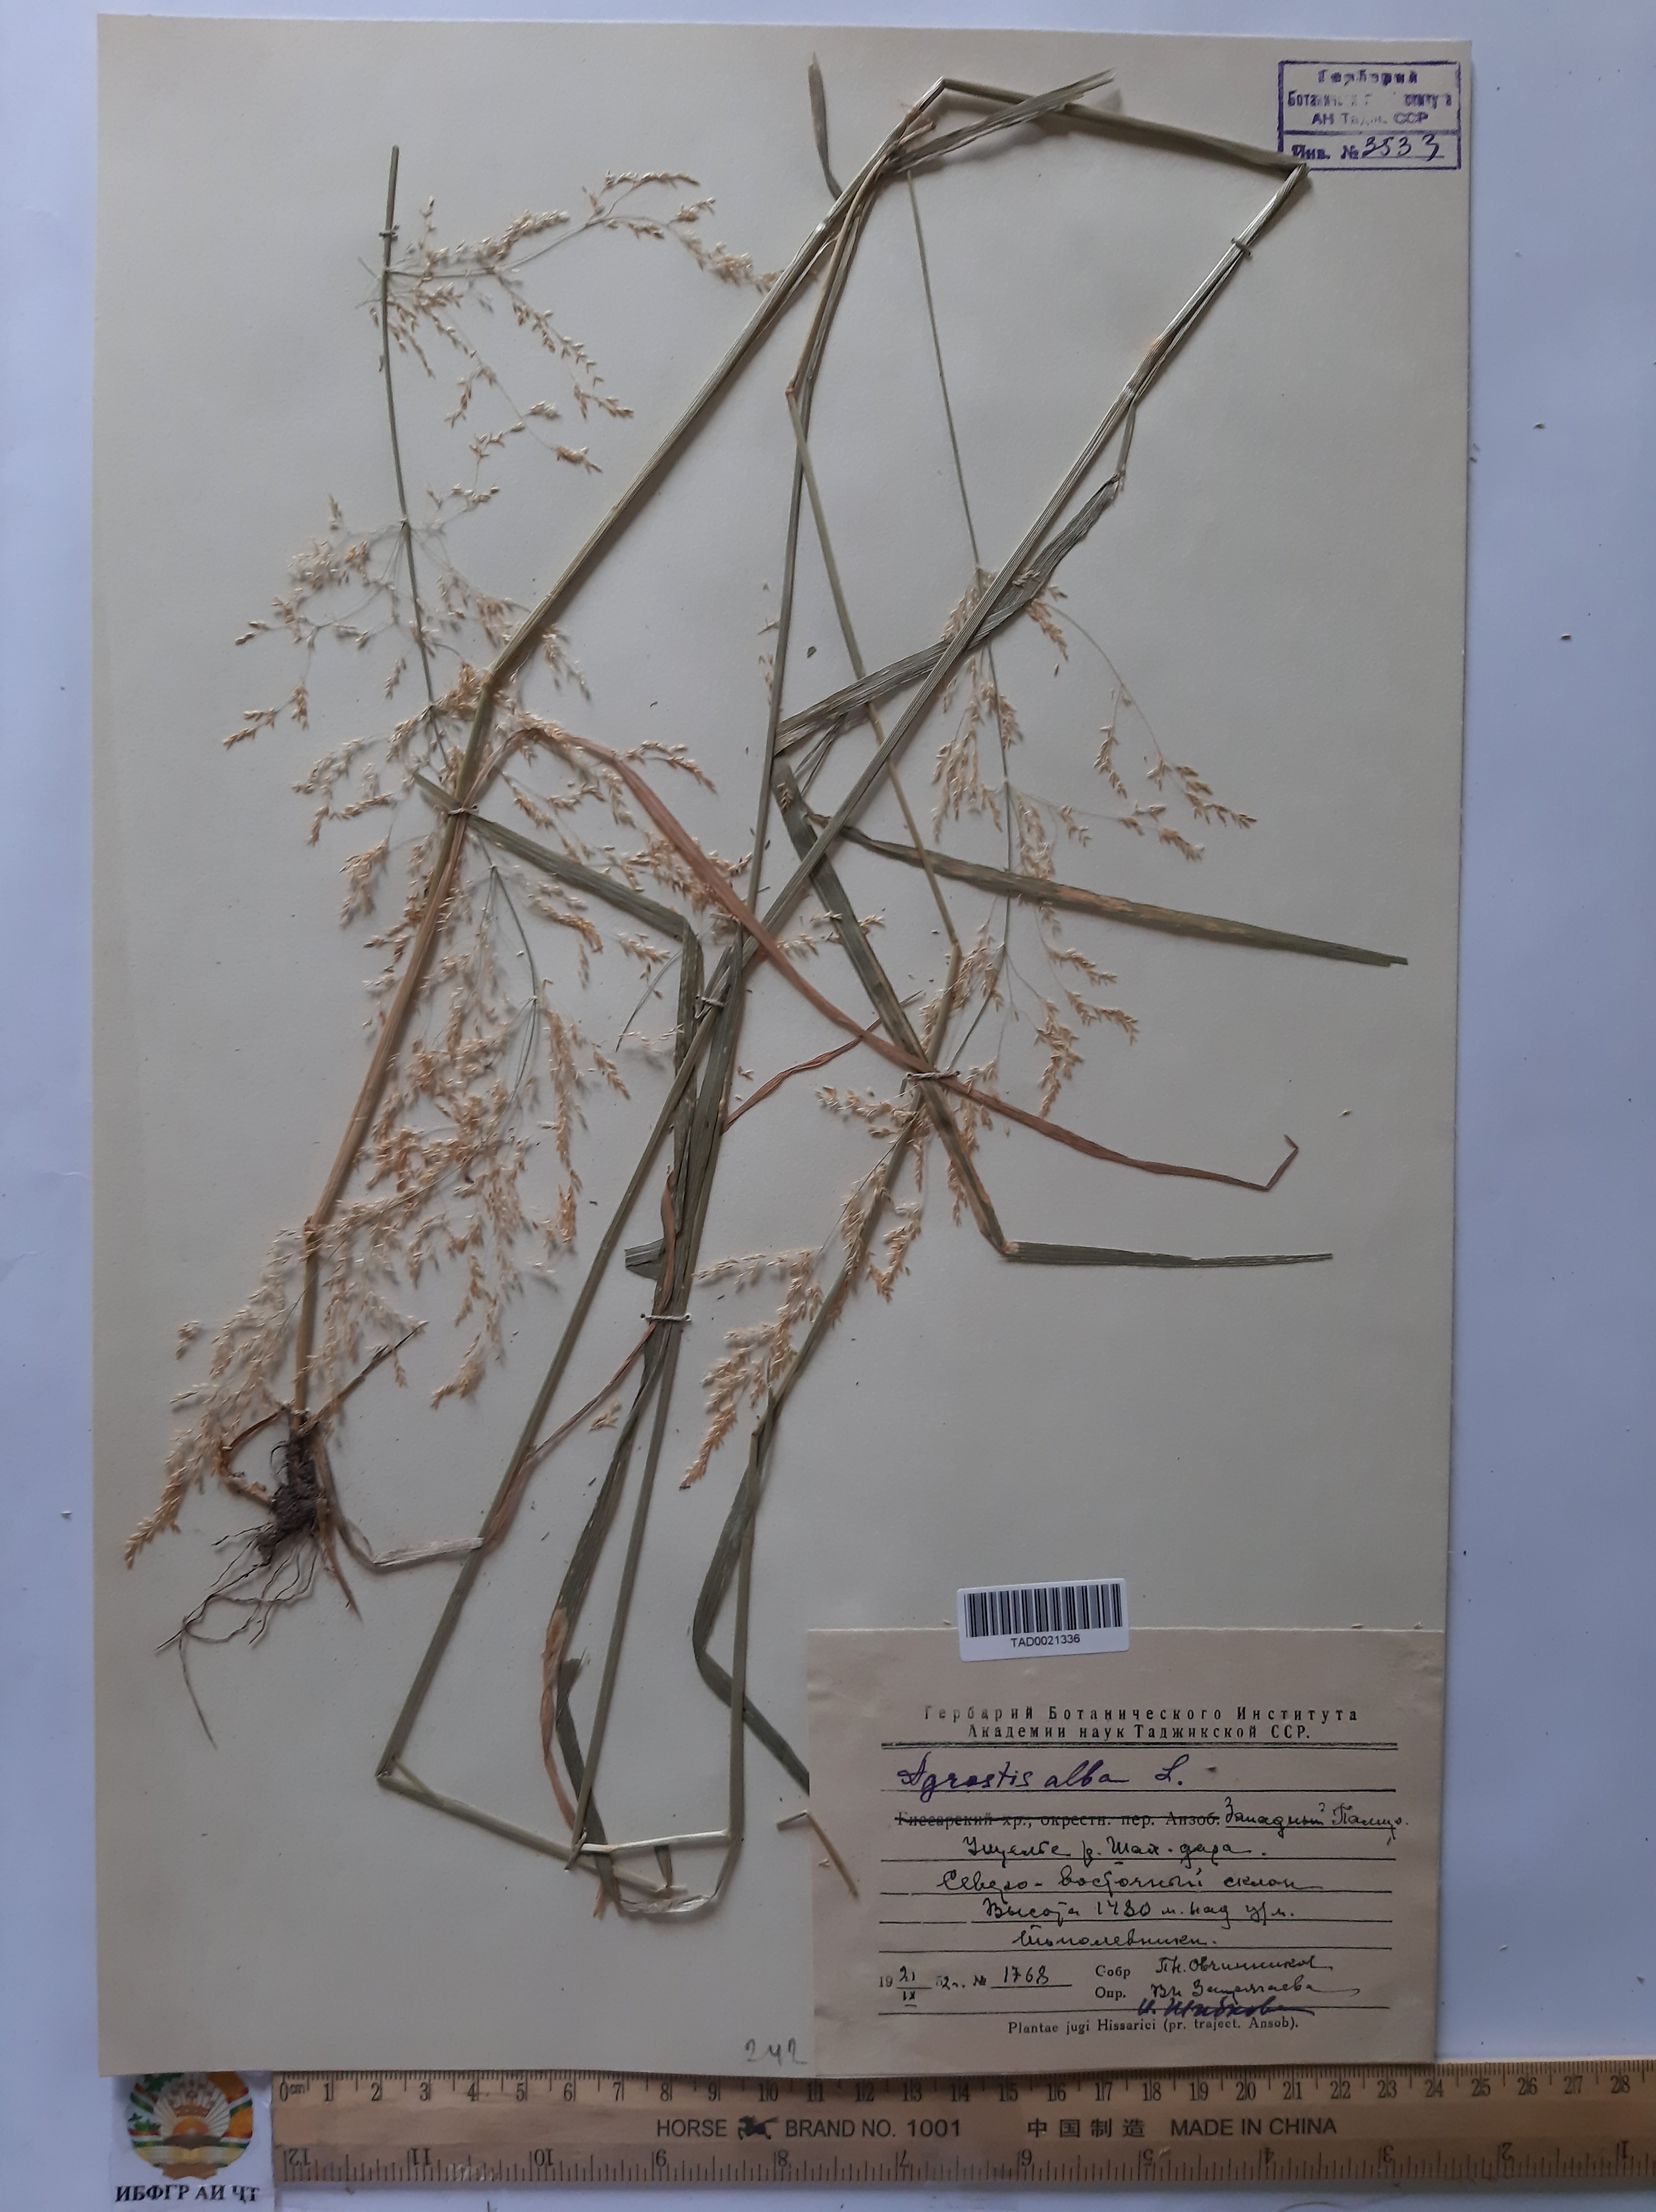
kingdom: Plantae
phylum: Tracheophyta
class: Liliopsida
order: Poales
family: Poaceae
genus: Poa
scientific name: Poa nemoralis
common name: Wood bluegrass
